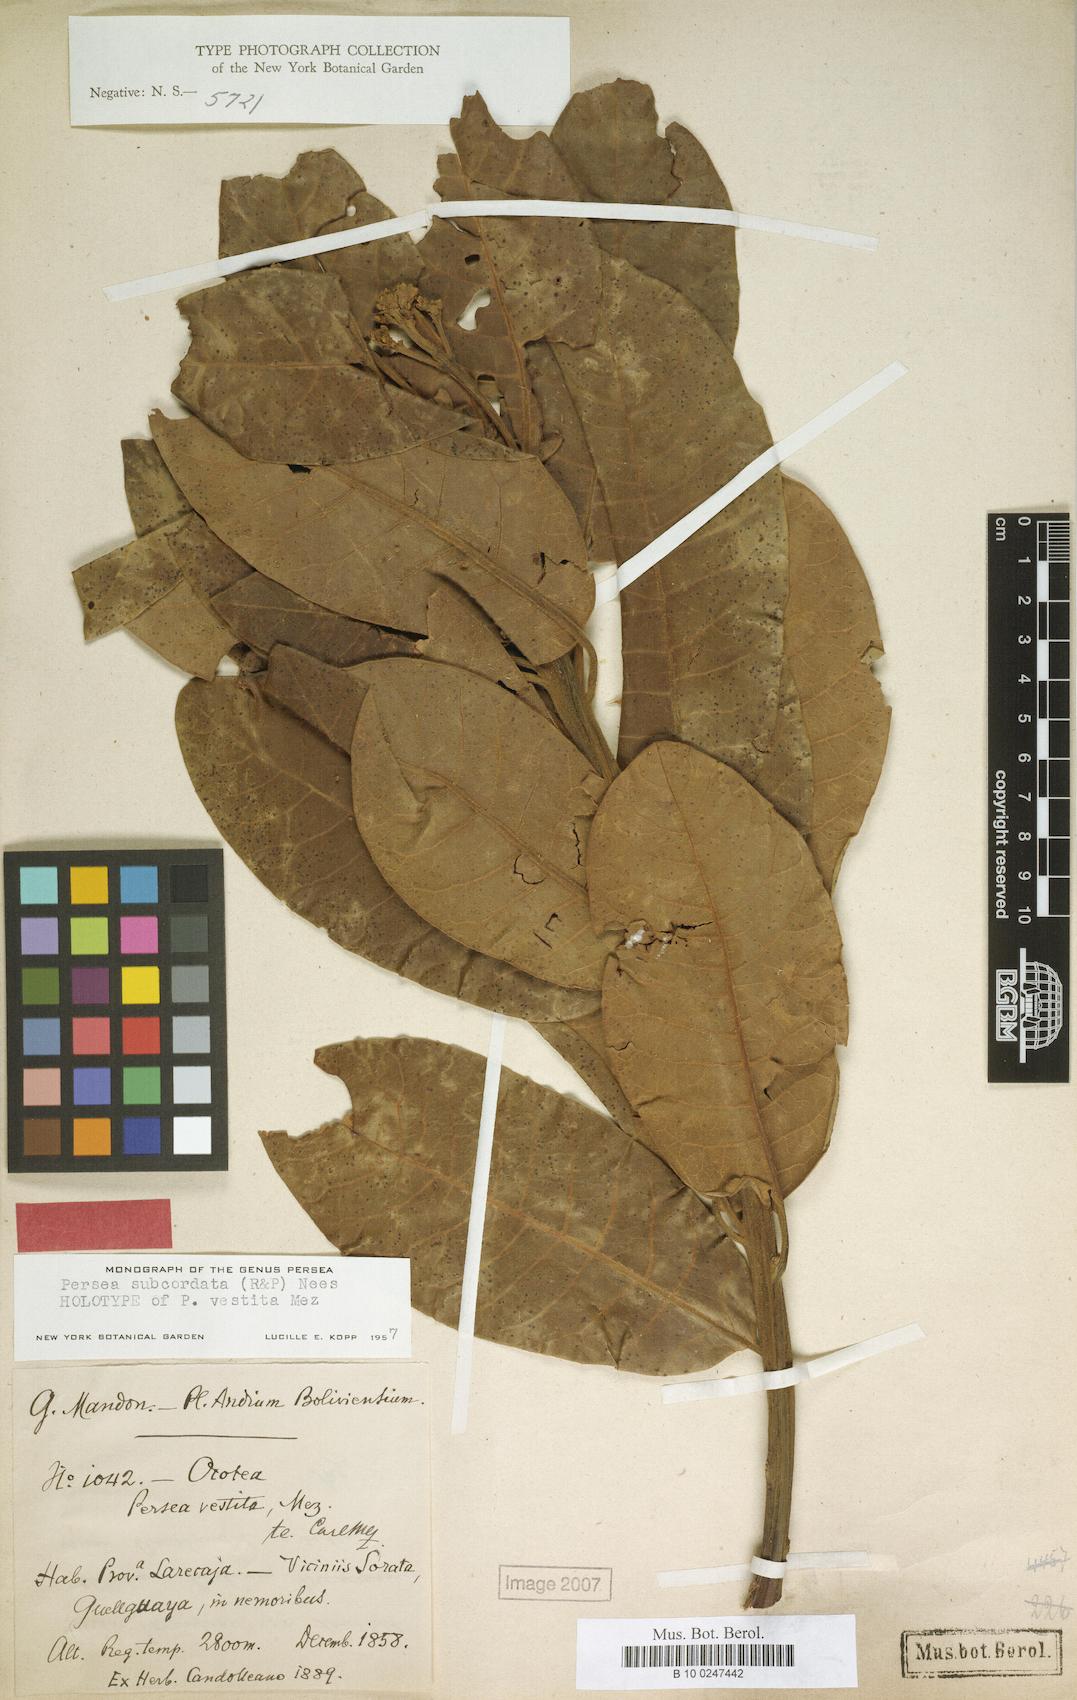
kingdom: Plantae
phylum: Tracheophyta
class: Magnoliopsida
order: Laurales
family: Lauraceae
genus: Persea
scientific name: Persea subcordata
